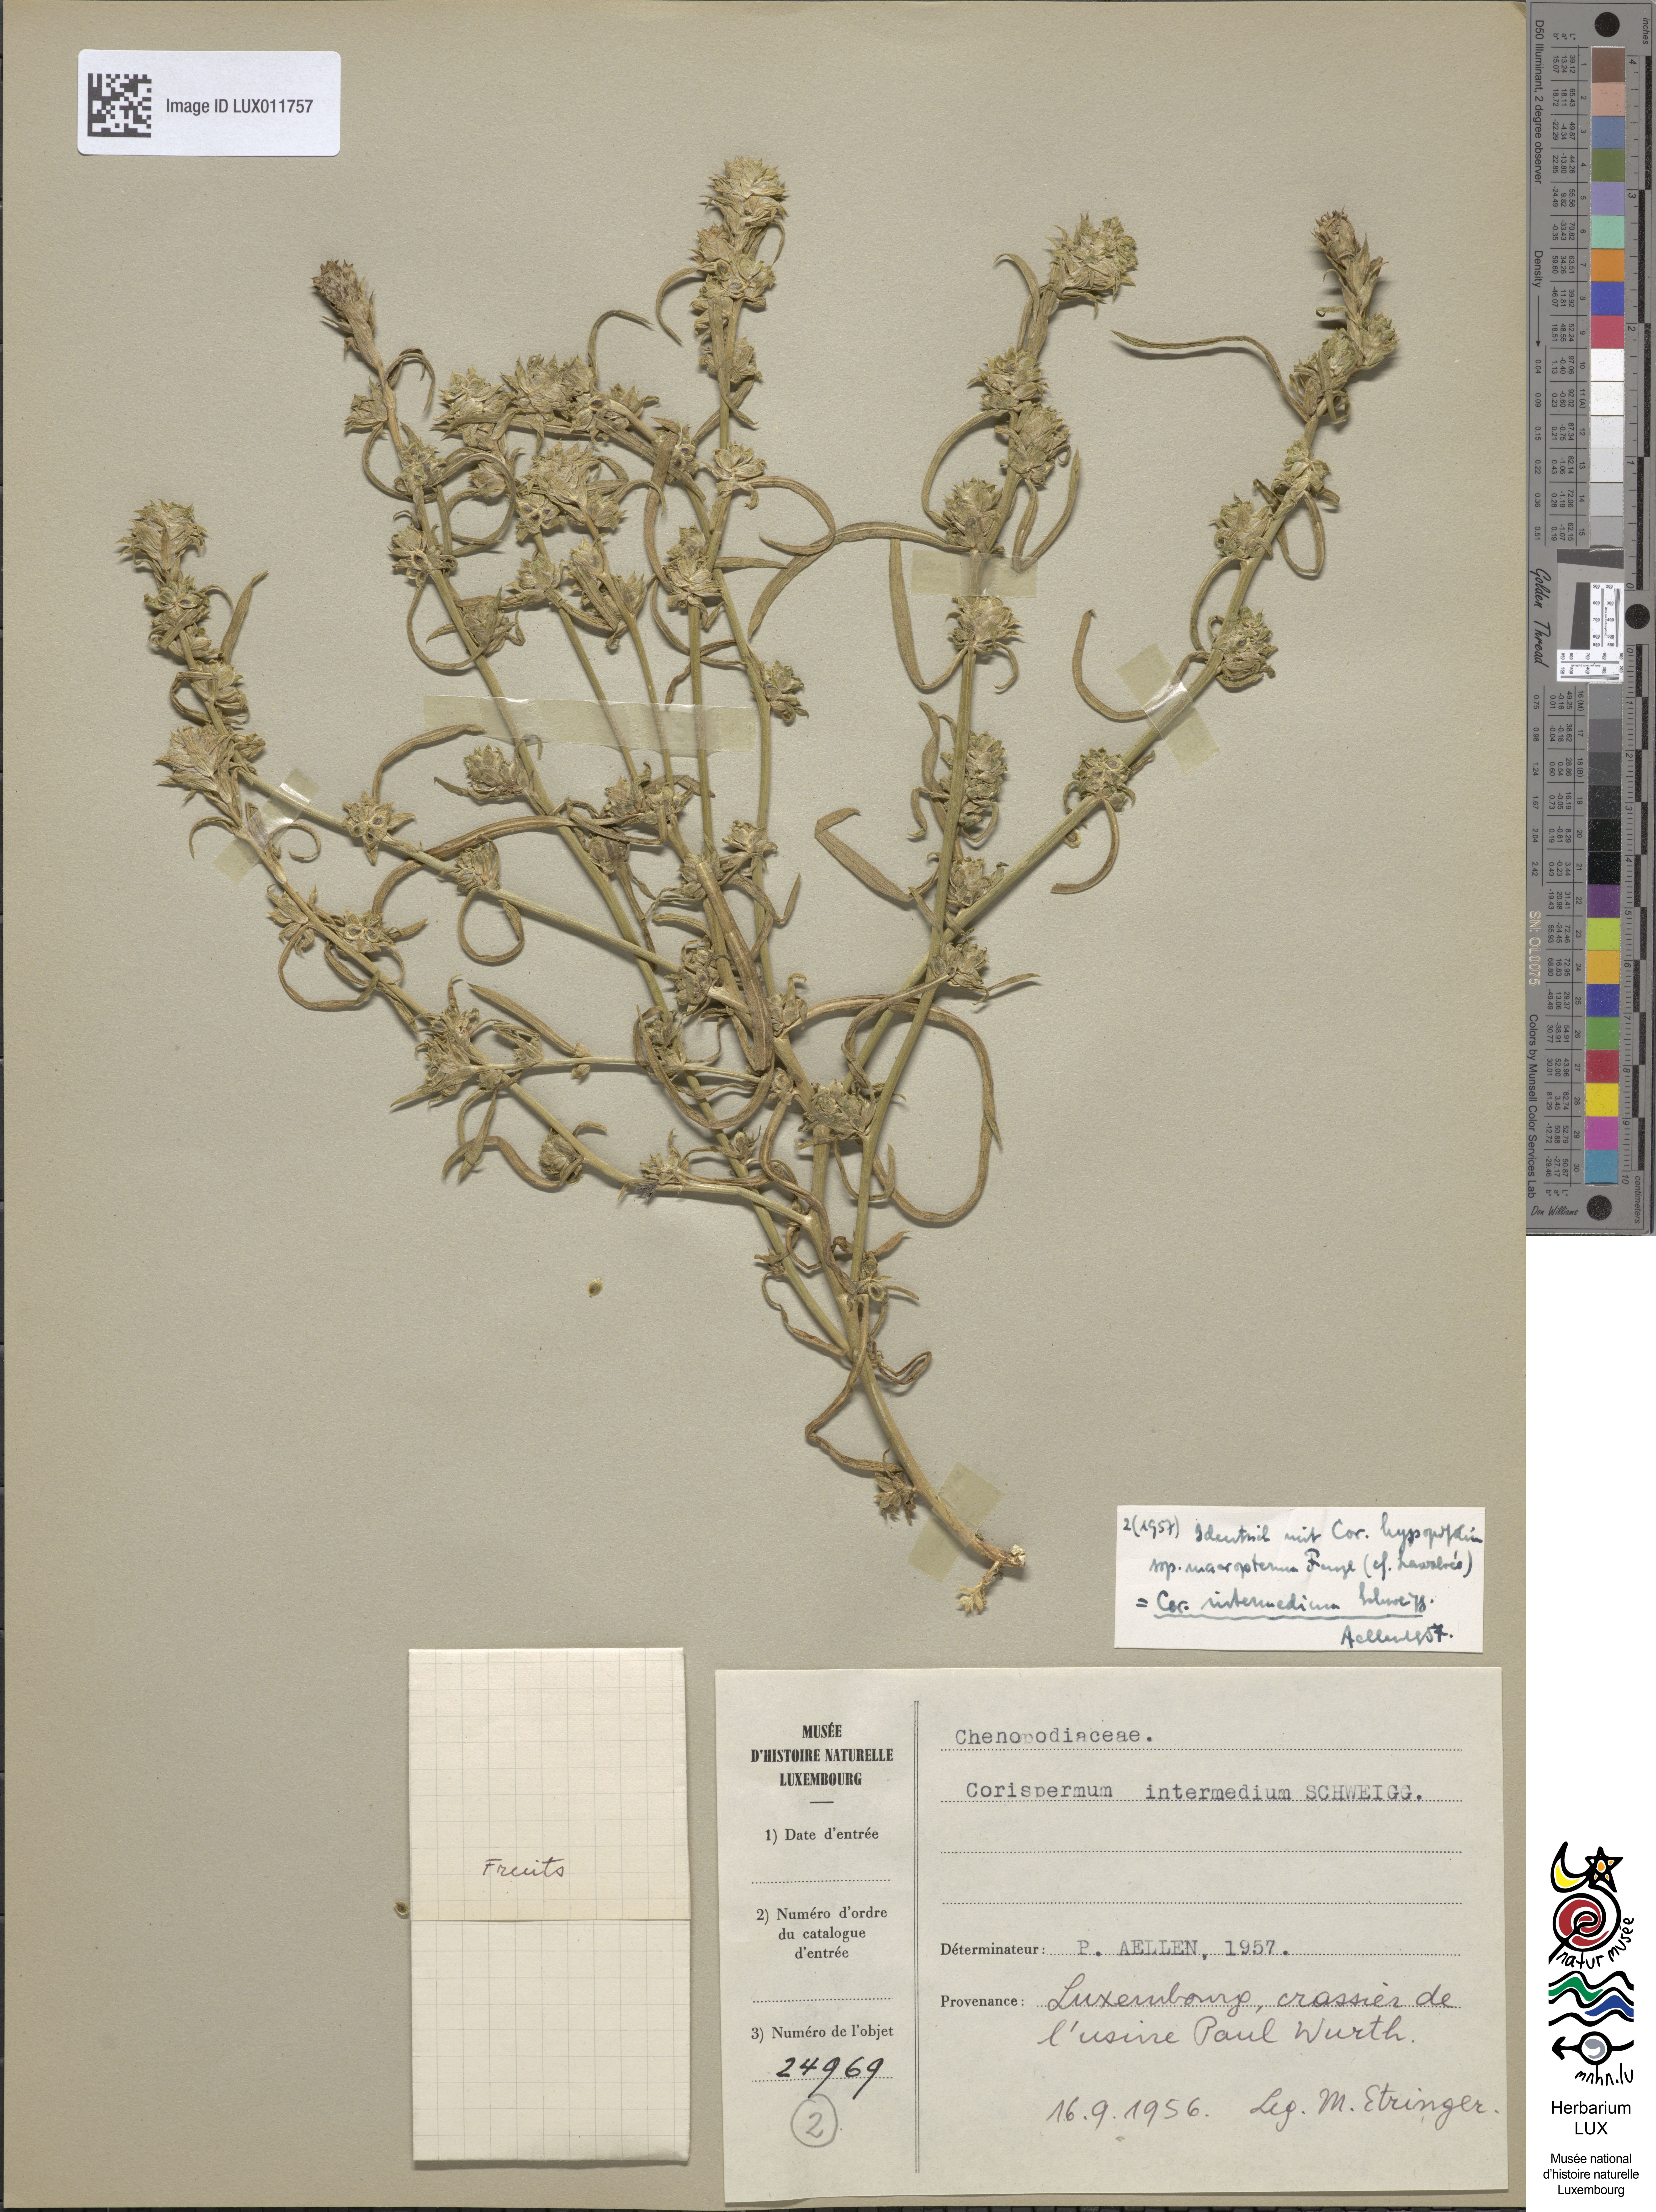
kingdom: Plantae
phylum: Tracheophyta
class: Magnoliopsida
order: Caryophyllales
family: Amaranthaceae
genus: Corispermum
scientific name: Corispermum intermedium
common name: Hyssop-leaved tickseed
